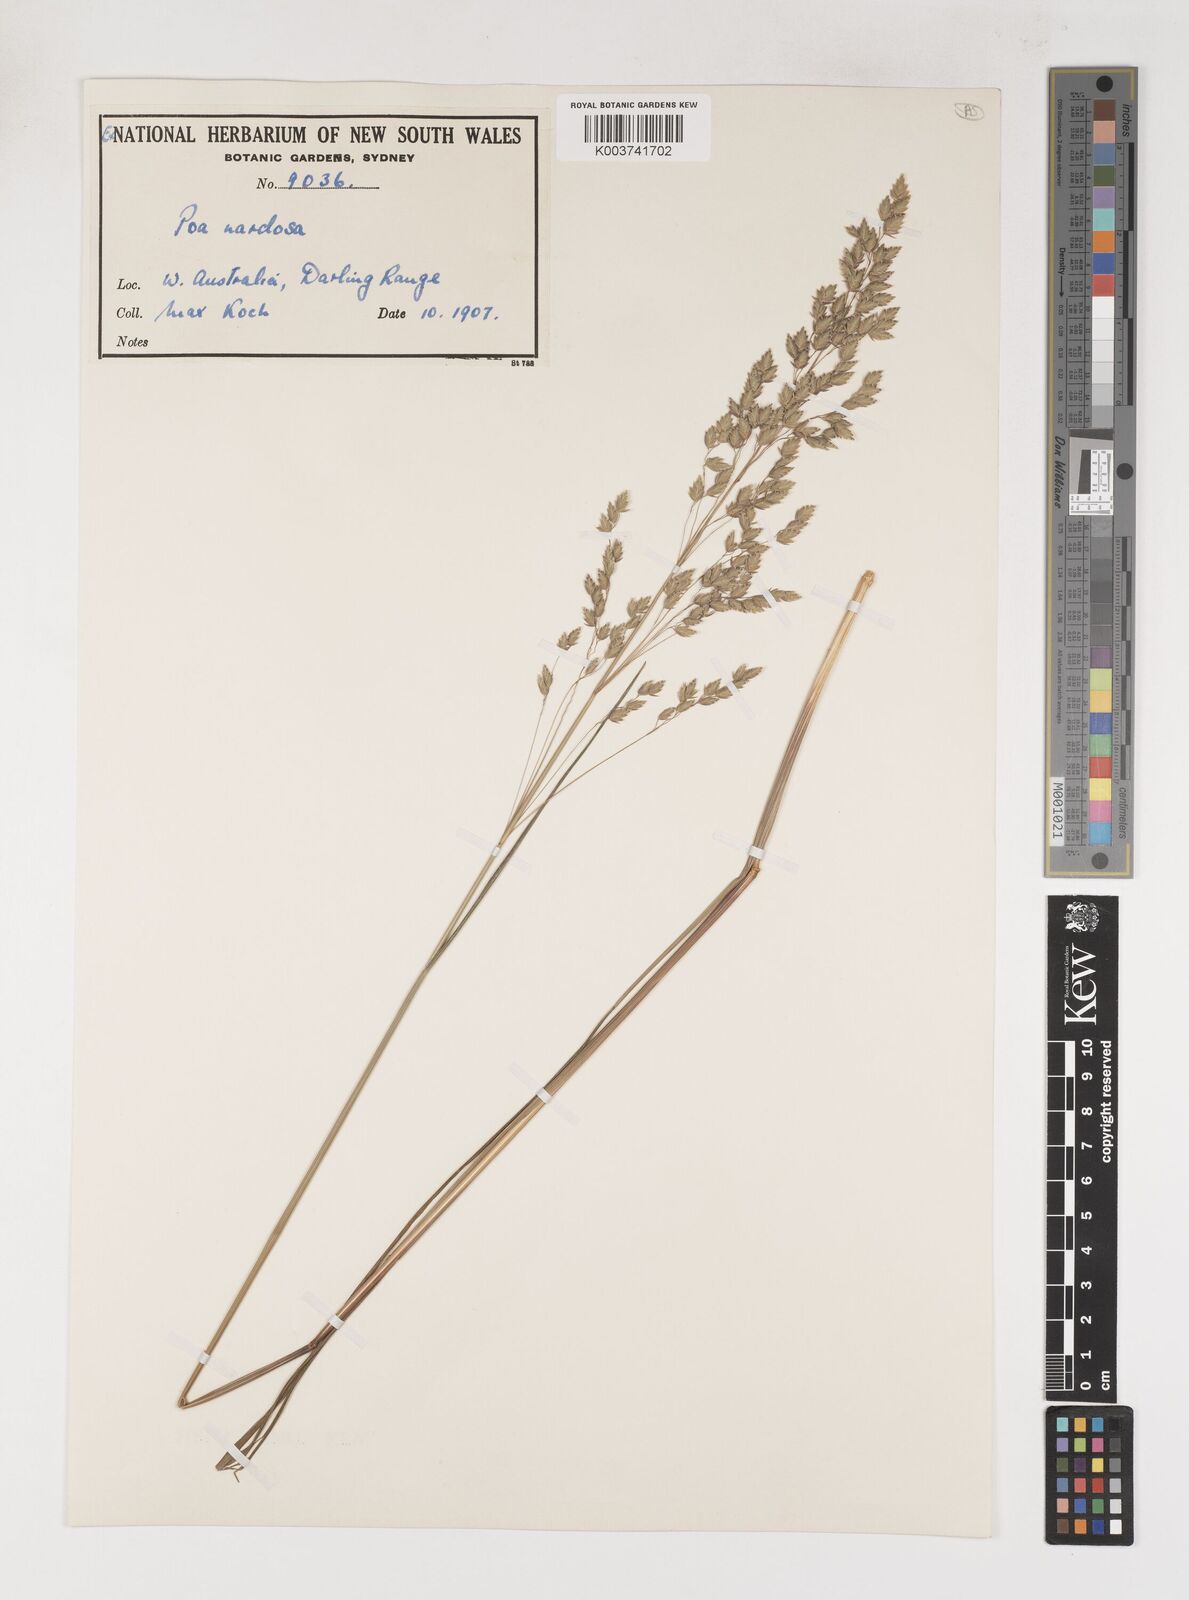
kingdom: Plantae
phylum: Tracheophyta
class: Liliopsida
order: Poales
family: Poaceae
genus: Poa
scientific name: Poa drummondiana
